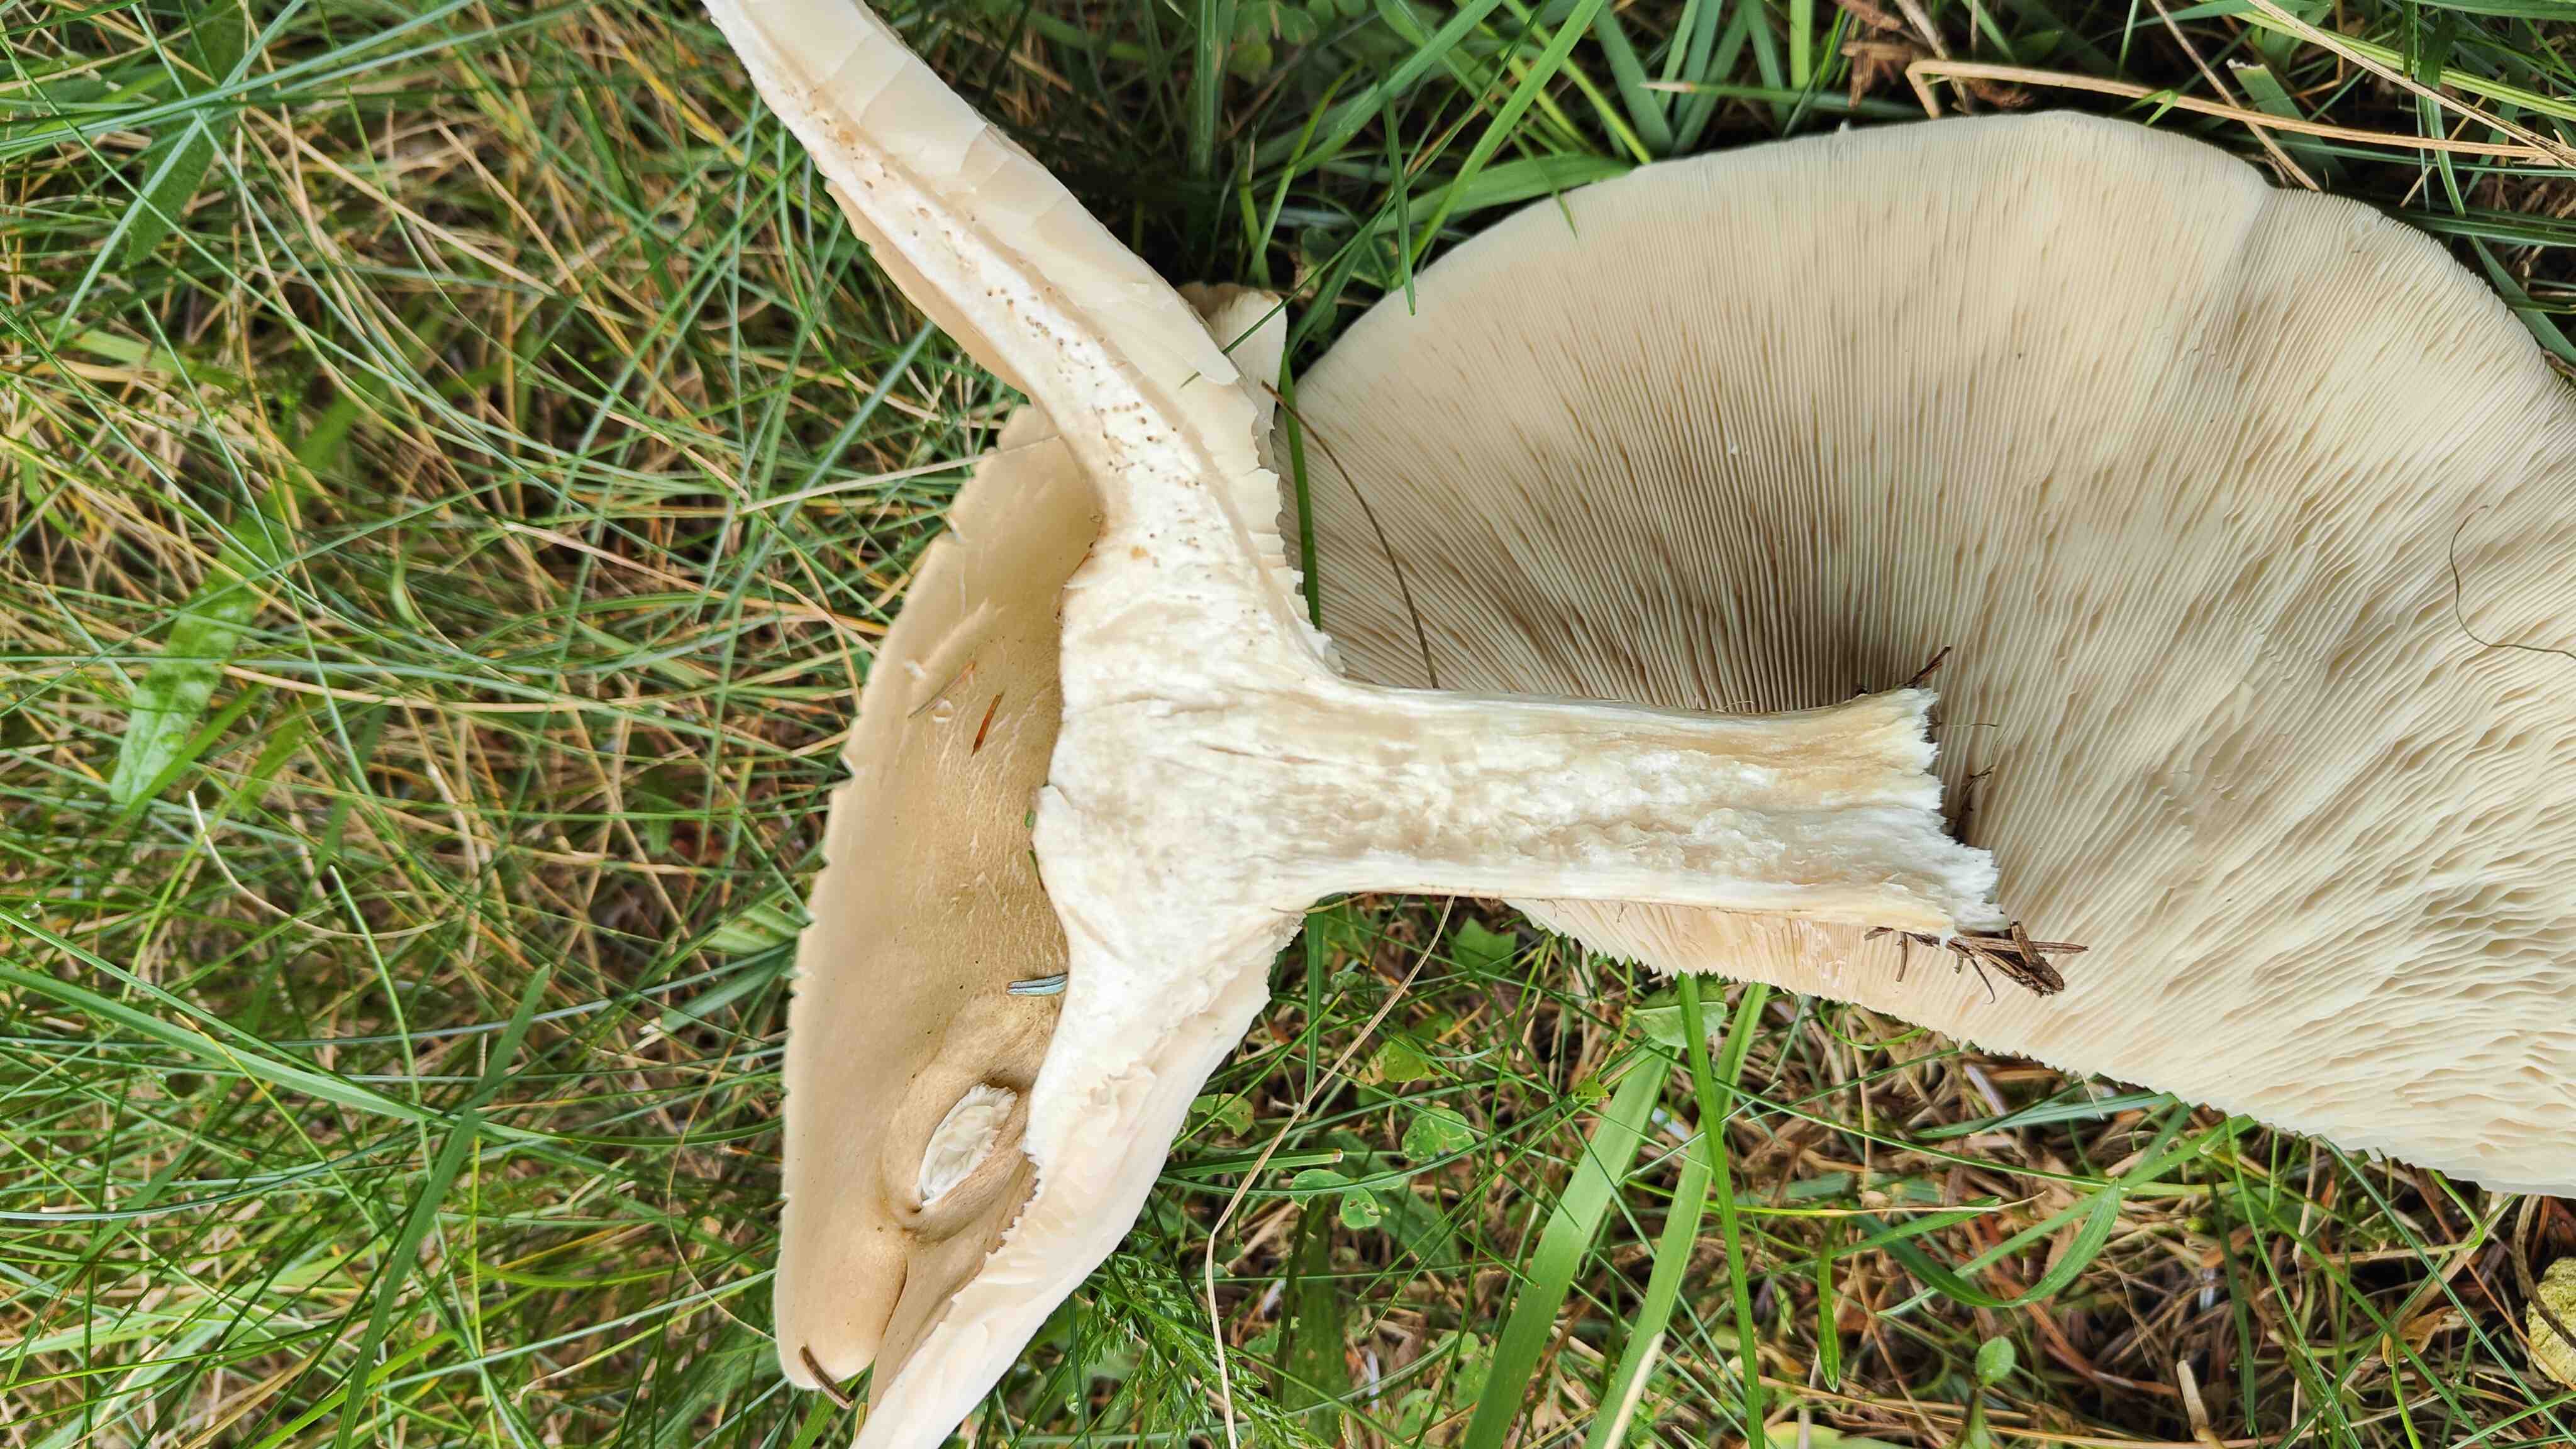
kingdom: Fungi
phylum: Basidiomycota
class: Agaricomycetes
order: Agaricales
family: Tricholomataceae
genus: Melanoleuca
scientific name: Melanoleuca
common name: munkehat
